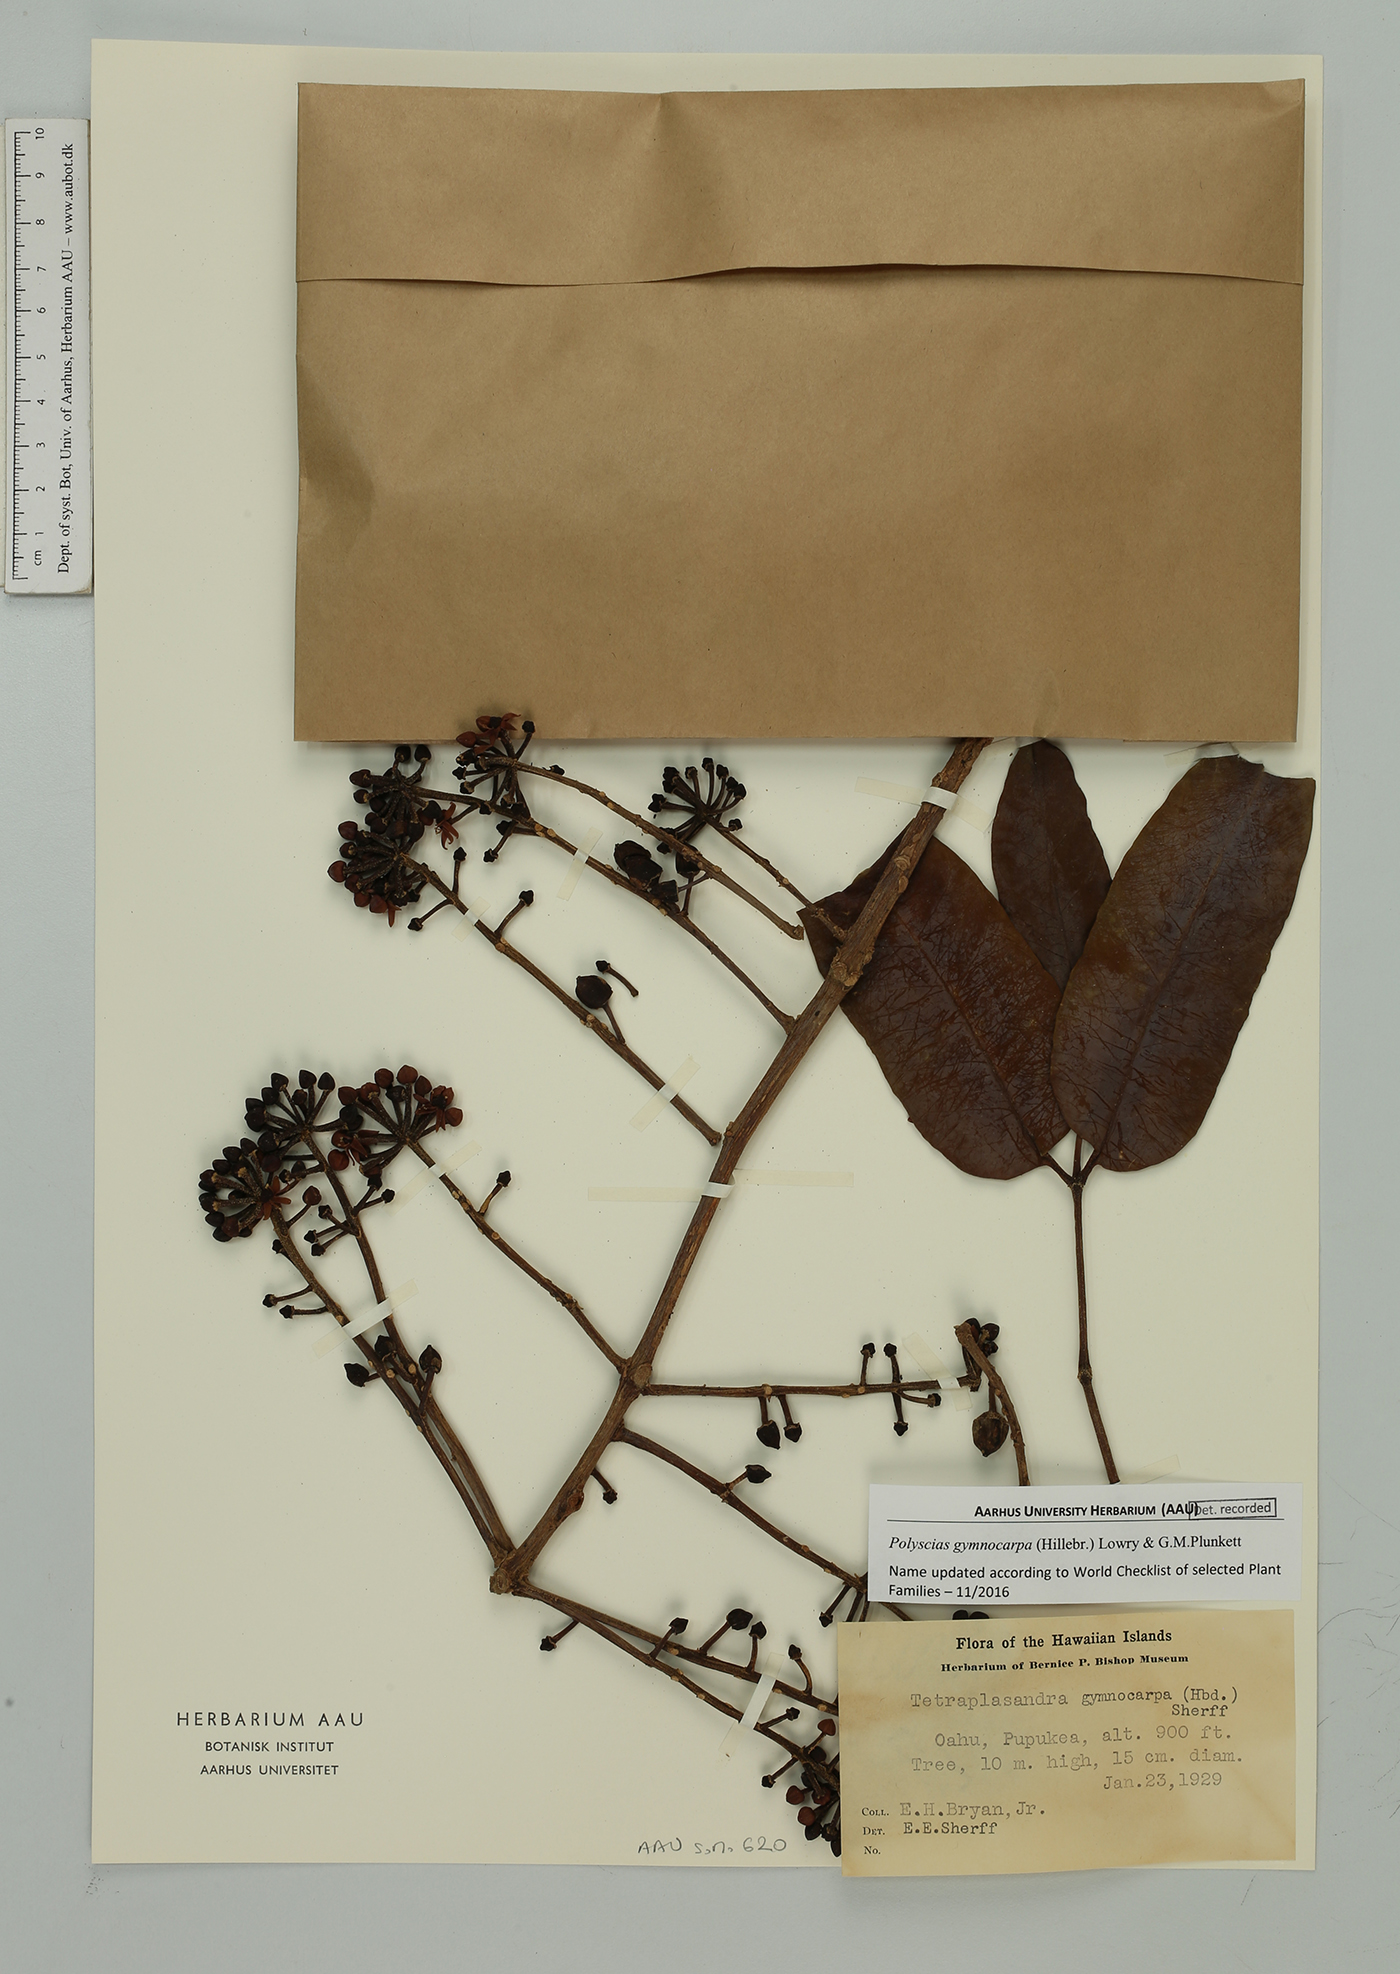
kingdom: Plantae
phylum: Tracheophyta
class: Magnoliopsida
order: Apiales
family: Araliaceae
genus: Polyscias
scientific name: Polyscias gymnocarpa
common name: Koolau tetraplasandra
